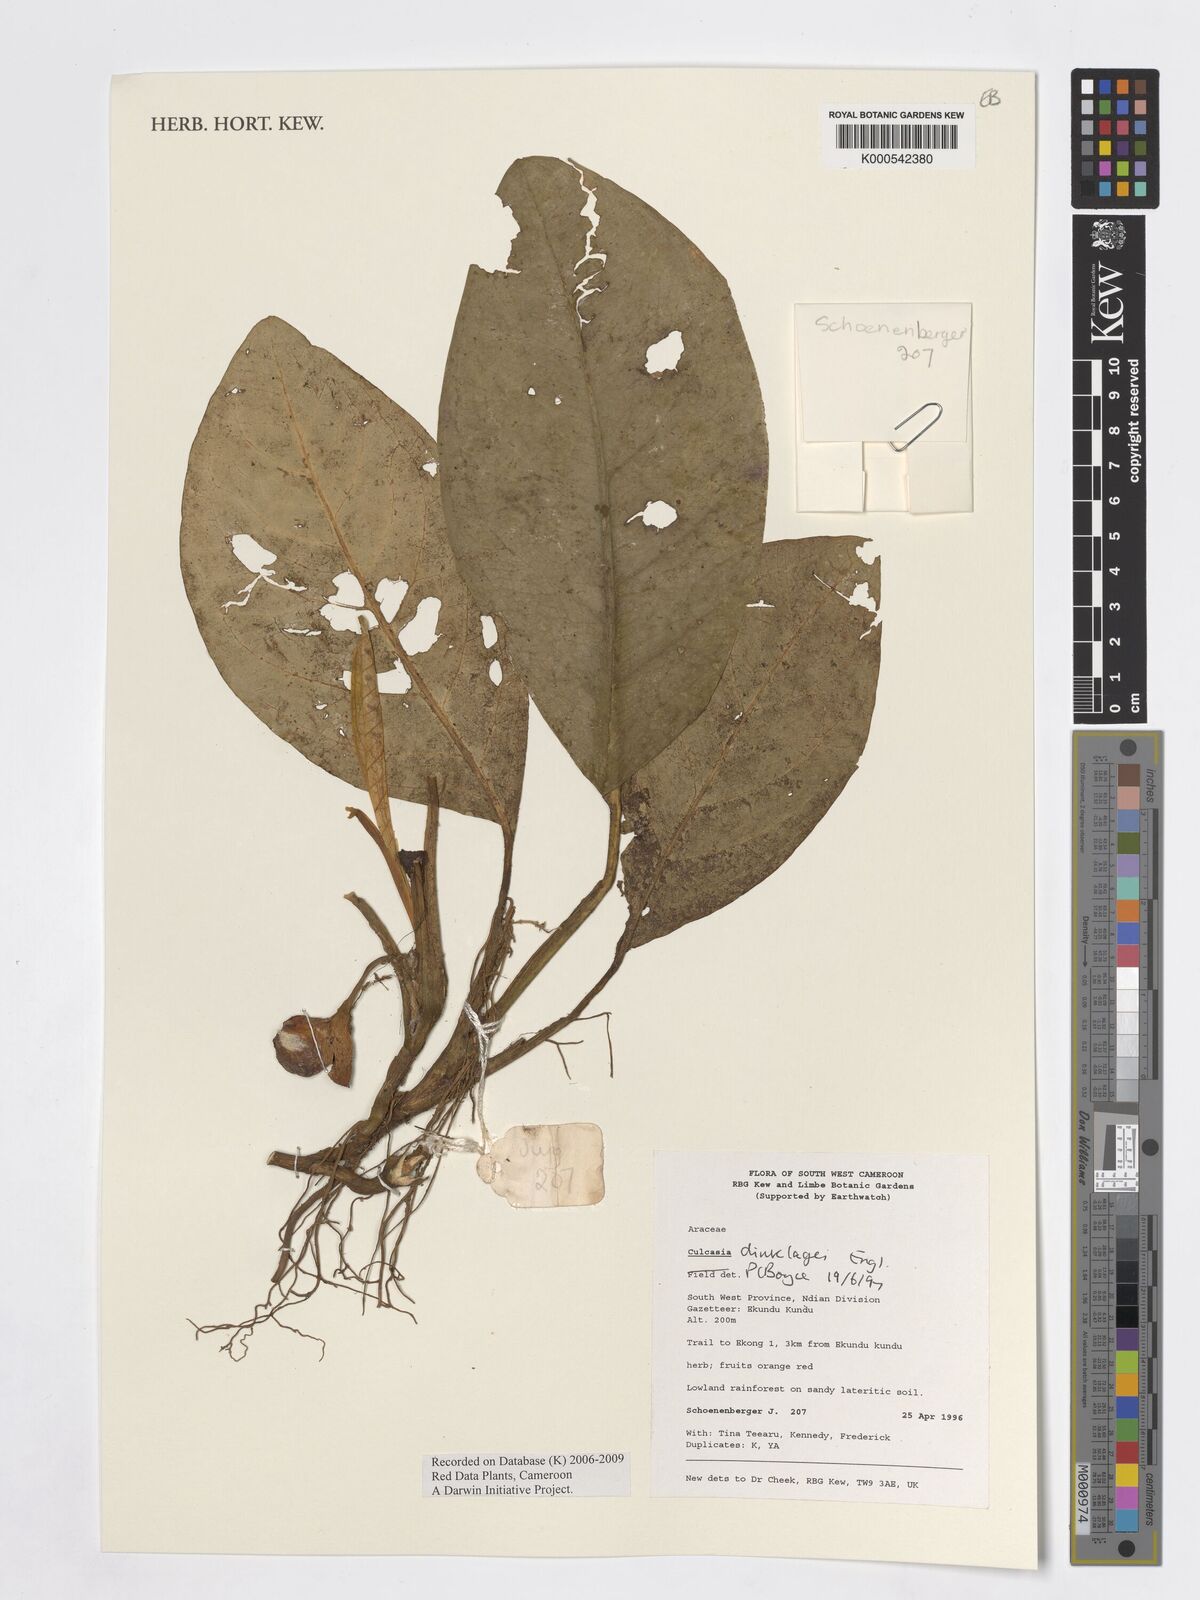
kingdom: Plantae
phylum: Tracheophyta
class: Liliopsida
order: Alismatales
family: Araceae
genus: Culcasia
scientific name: Culcasia dinklagei
